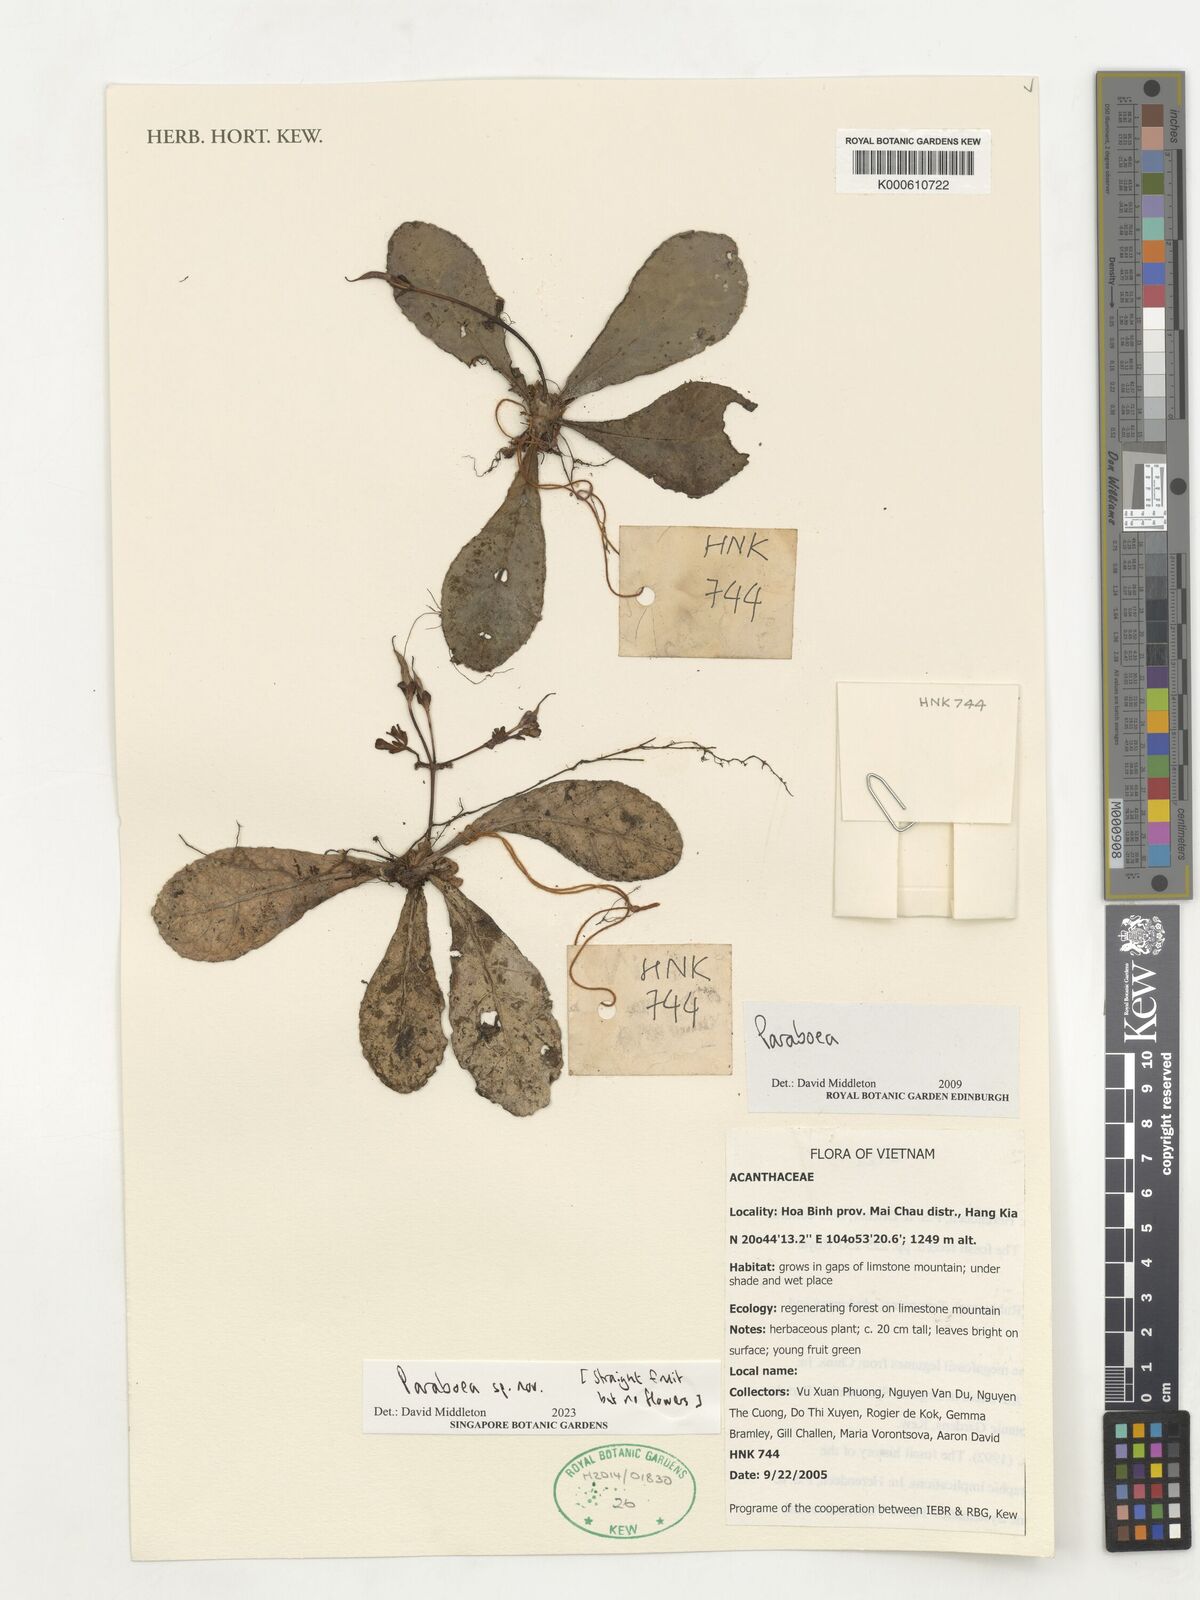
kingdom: Plantae
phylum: Tracheophyta
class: Magnoliopsida
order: Lamiales
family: Gesneriaceae
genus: Paraboea
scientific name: Paraboea
